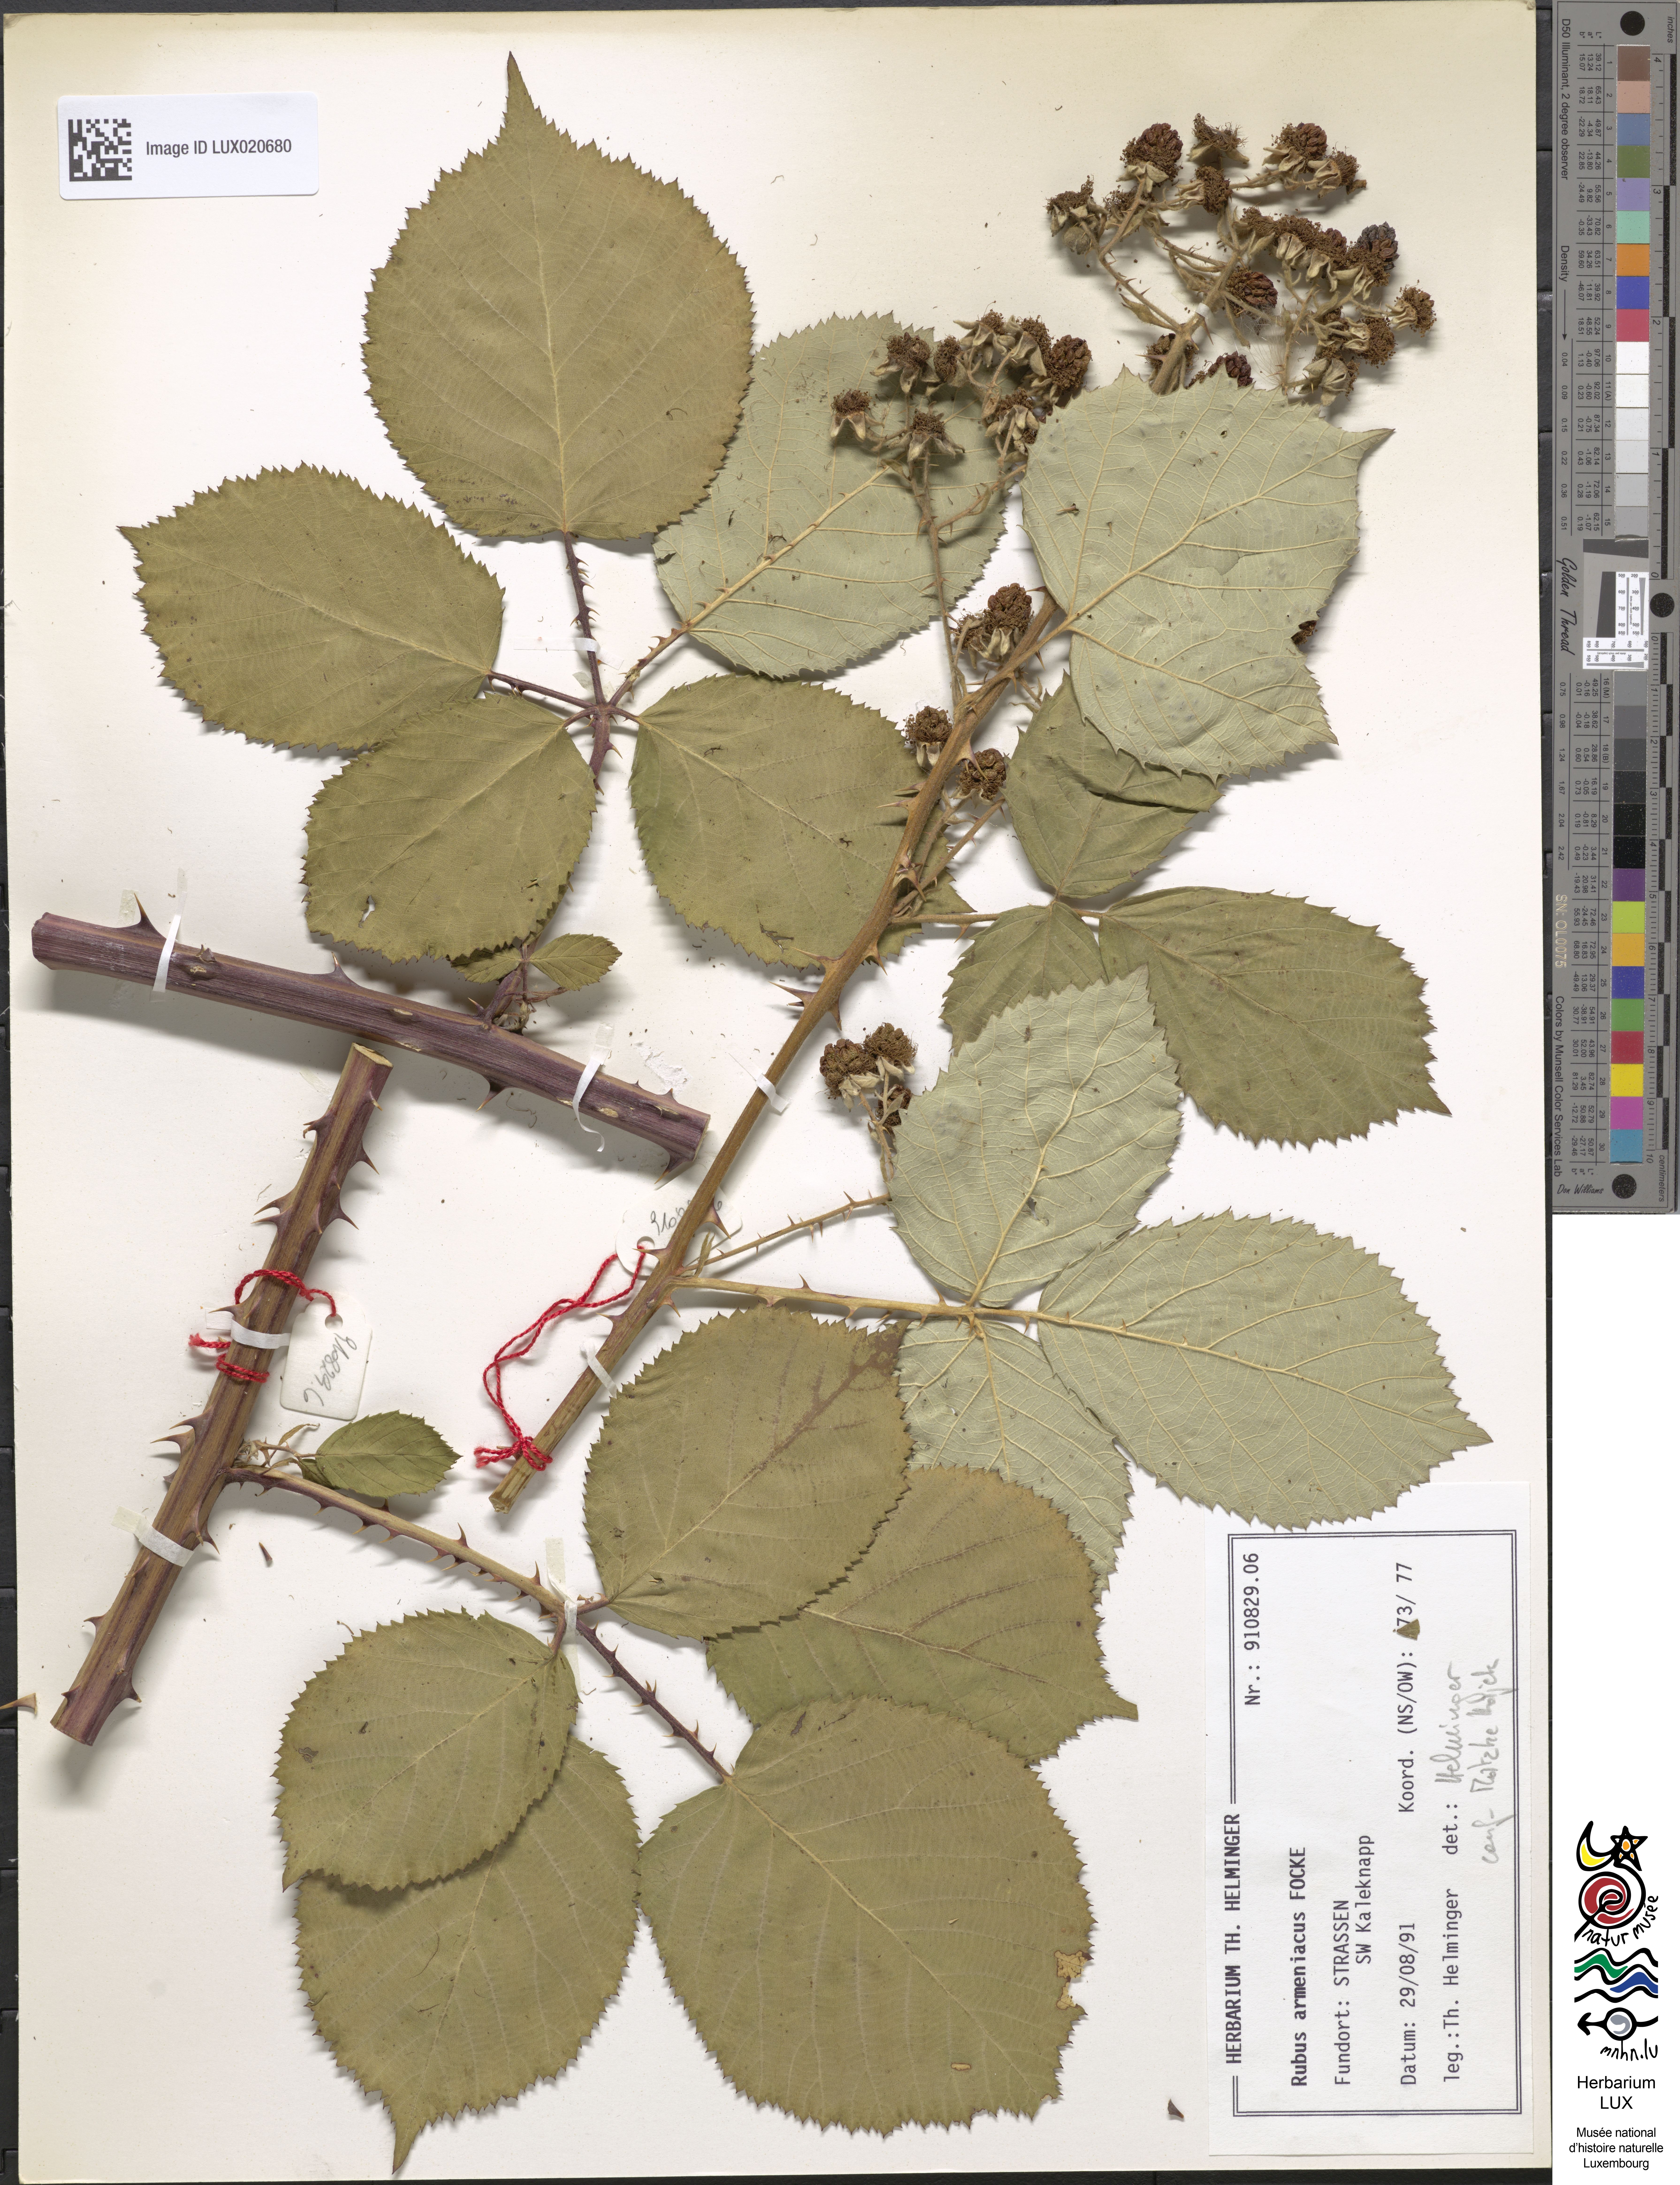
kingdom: Plantae
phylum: Tracheophyta
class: Magnoliopsida
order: Rosales
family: Rosaceae
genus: Rubus
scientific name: Rubus armeniacus
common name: Himalayan blackberry
